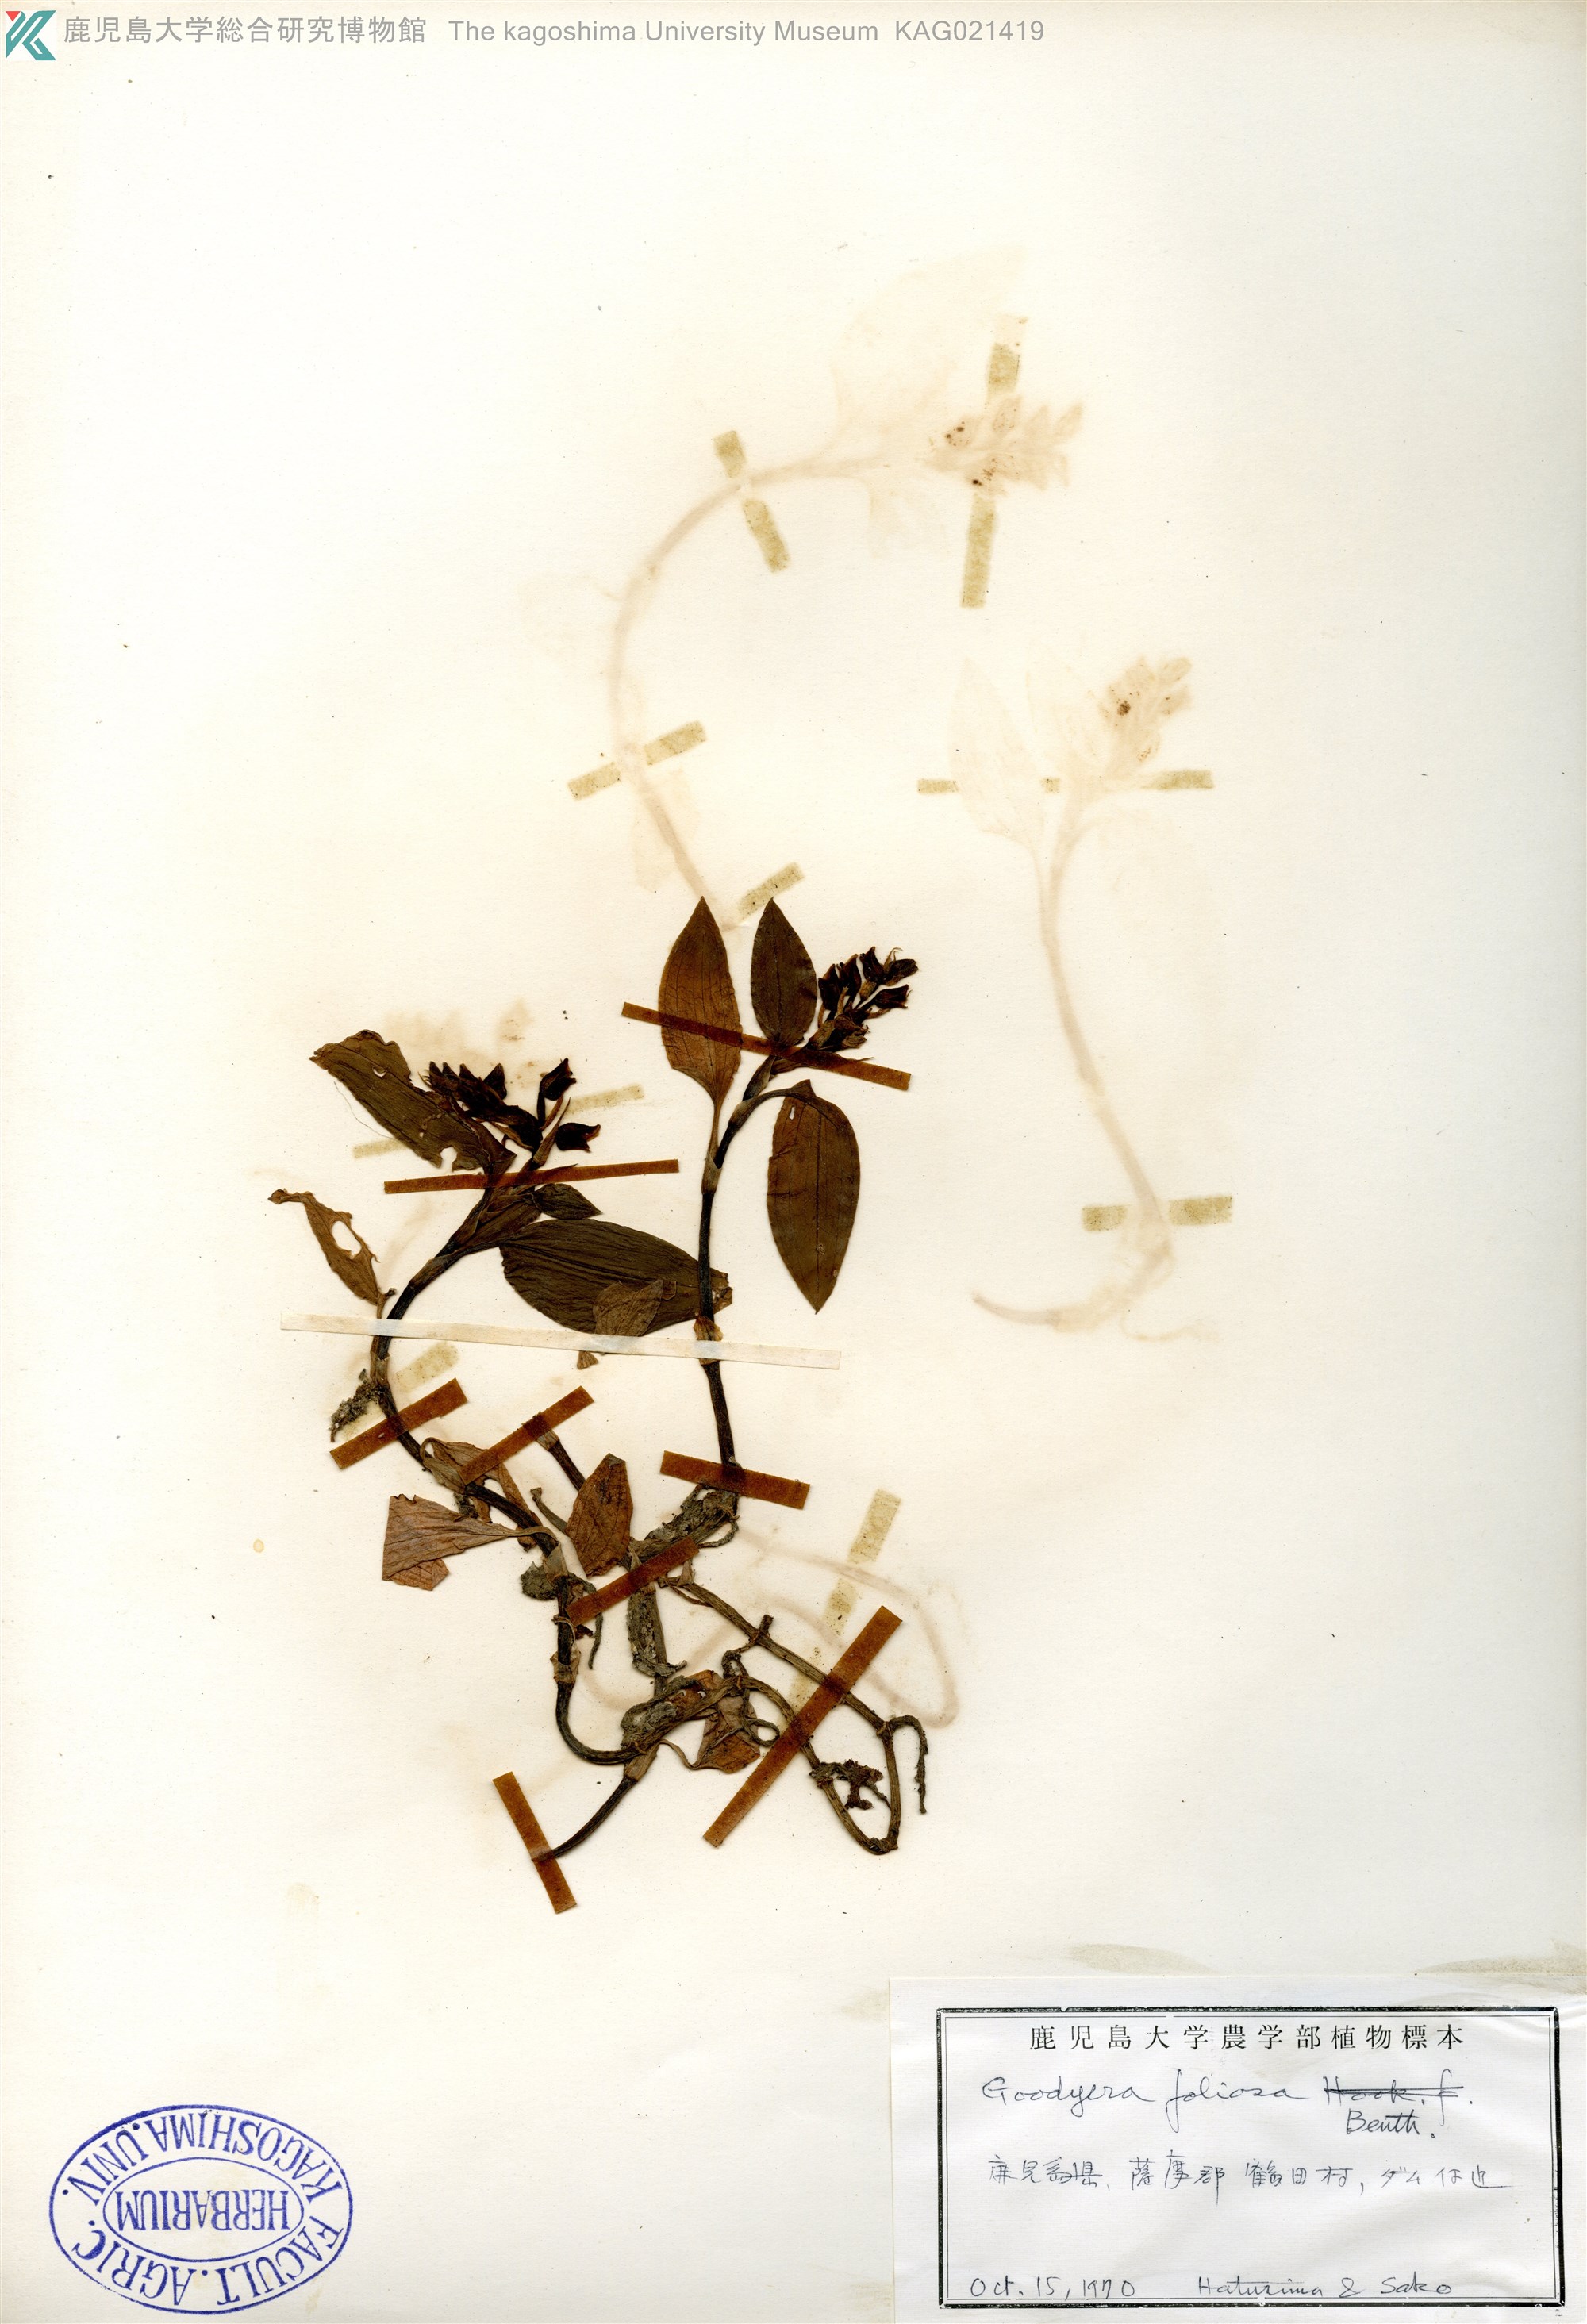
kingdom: Plantae
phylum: Tracheophyta
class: Liliopsida
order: Asparagales
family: Orchidaceae
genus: Goodyera
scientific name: Goodyera foliosa
